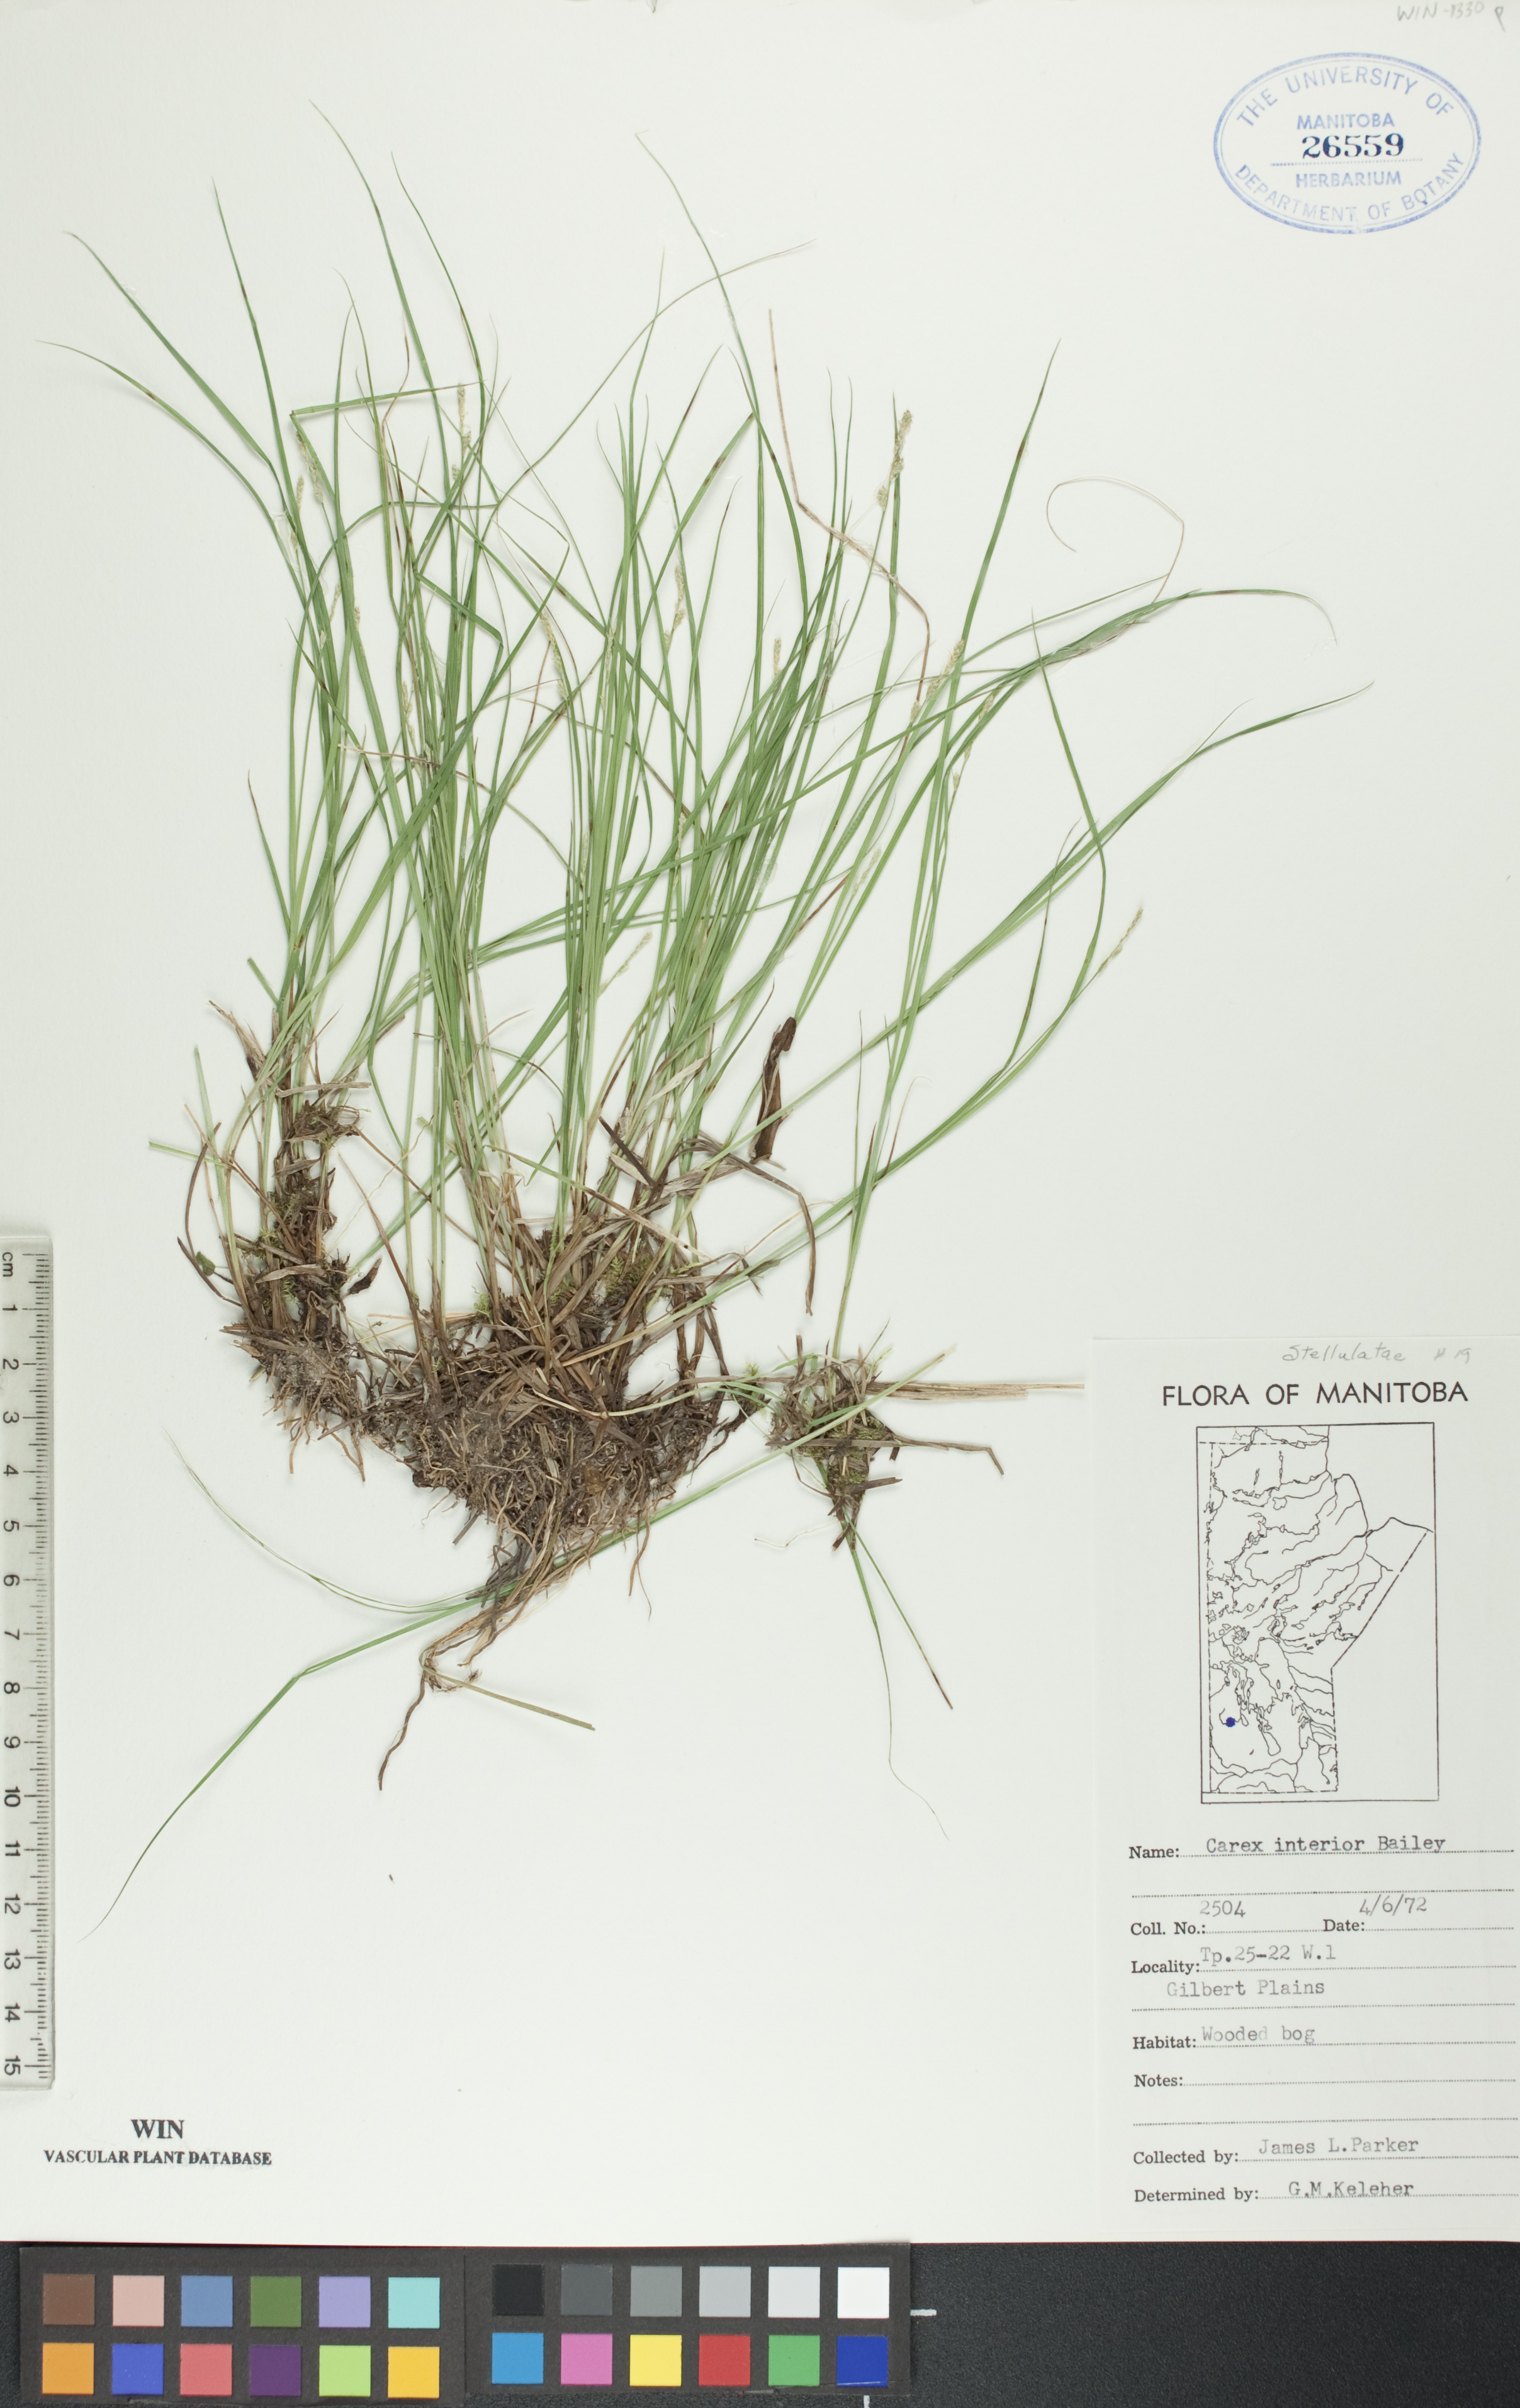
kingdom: Plantae
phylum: Tracheophyta
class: Liliopsida
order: Poales
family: Cyperaceae
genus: Carex
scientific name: Carex interior
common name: Inland sedge
